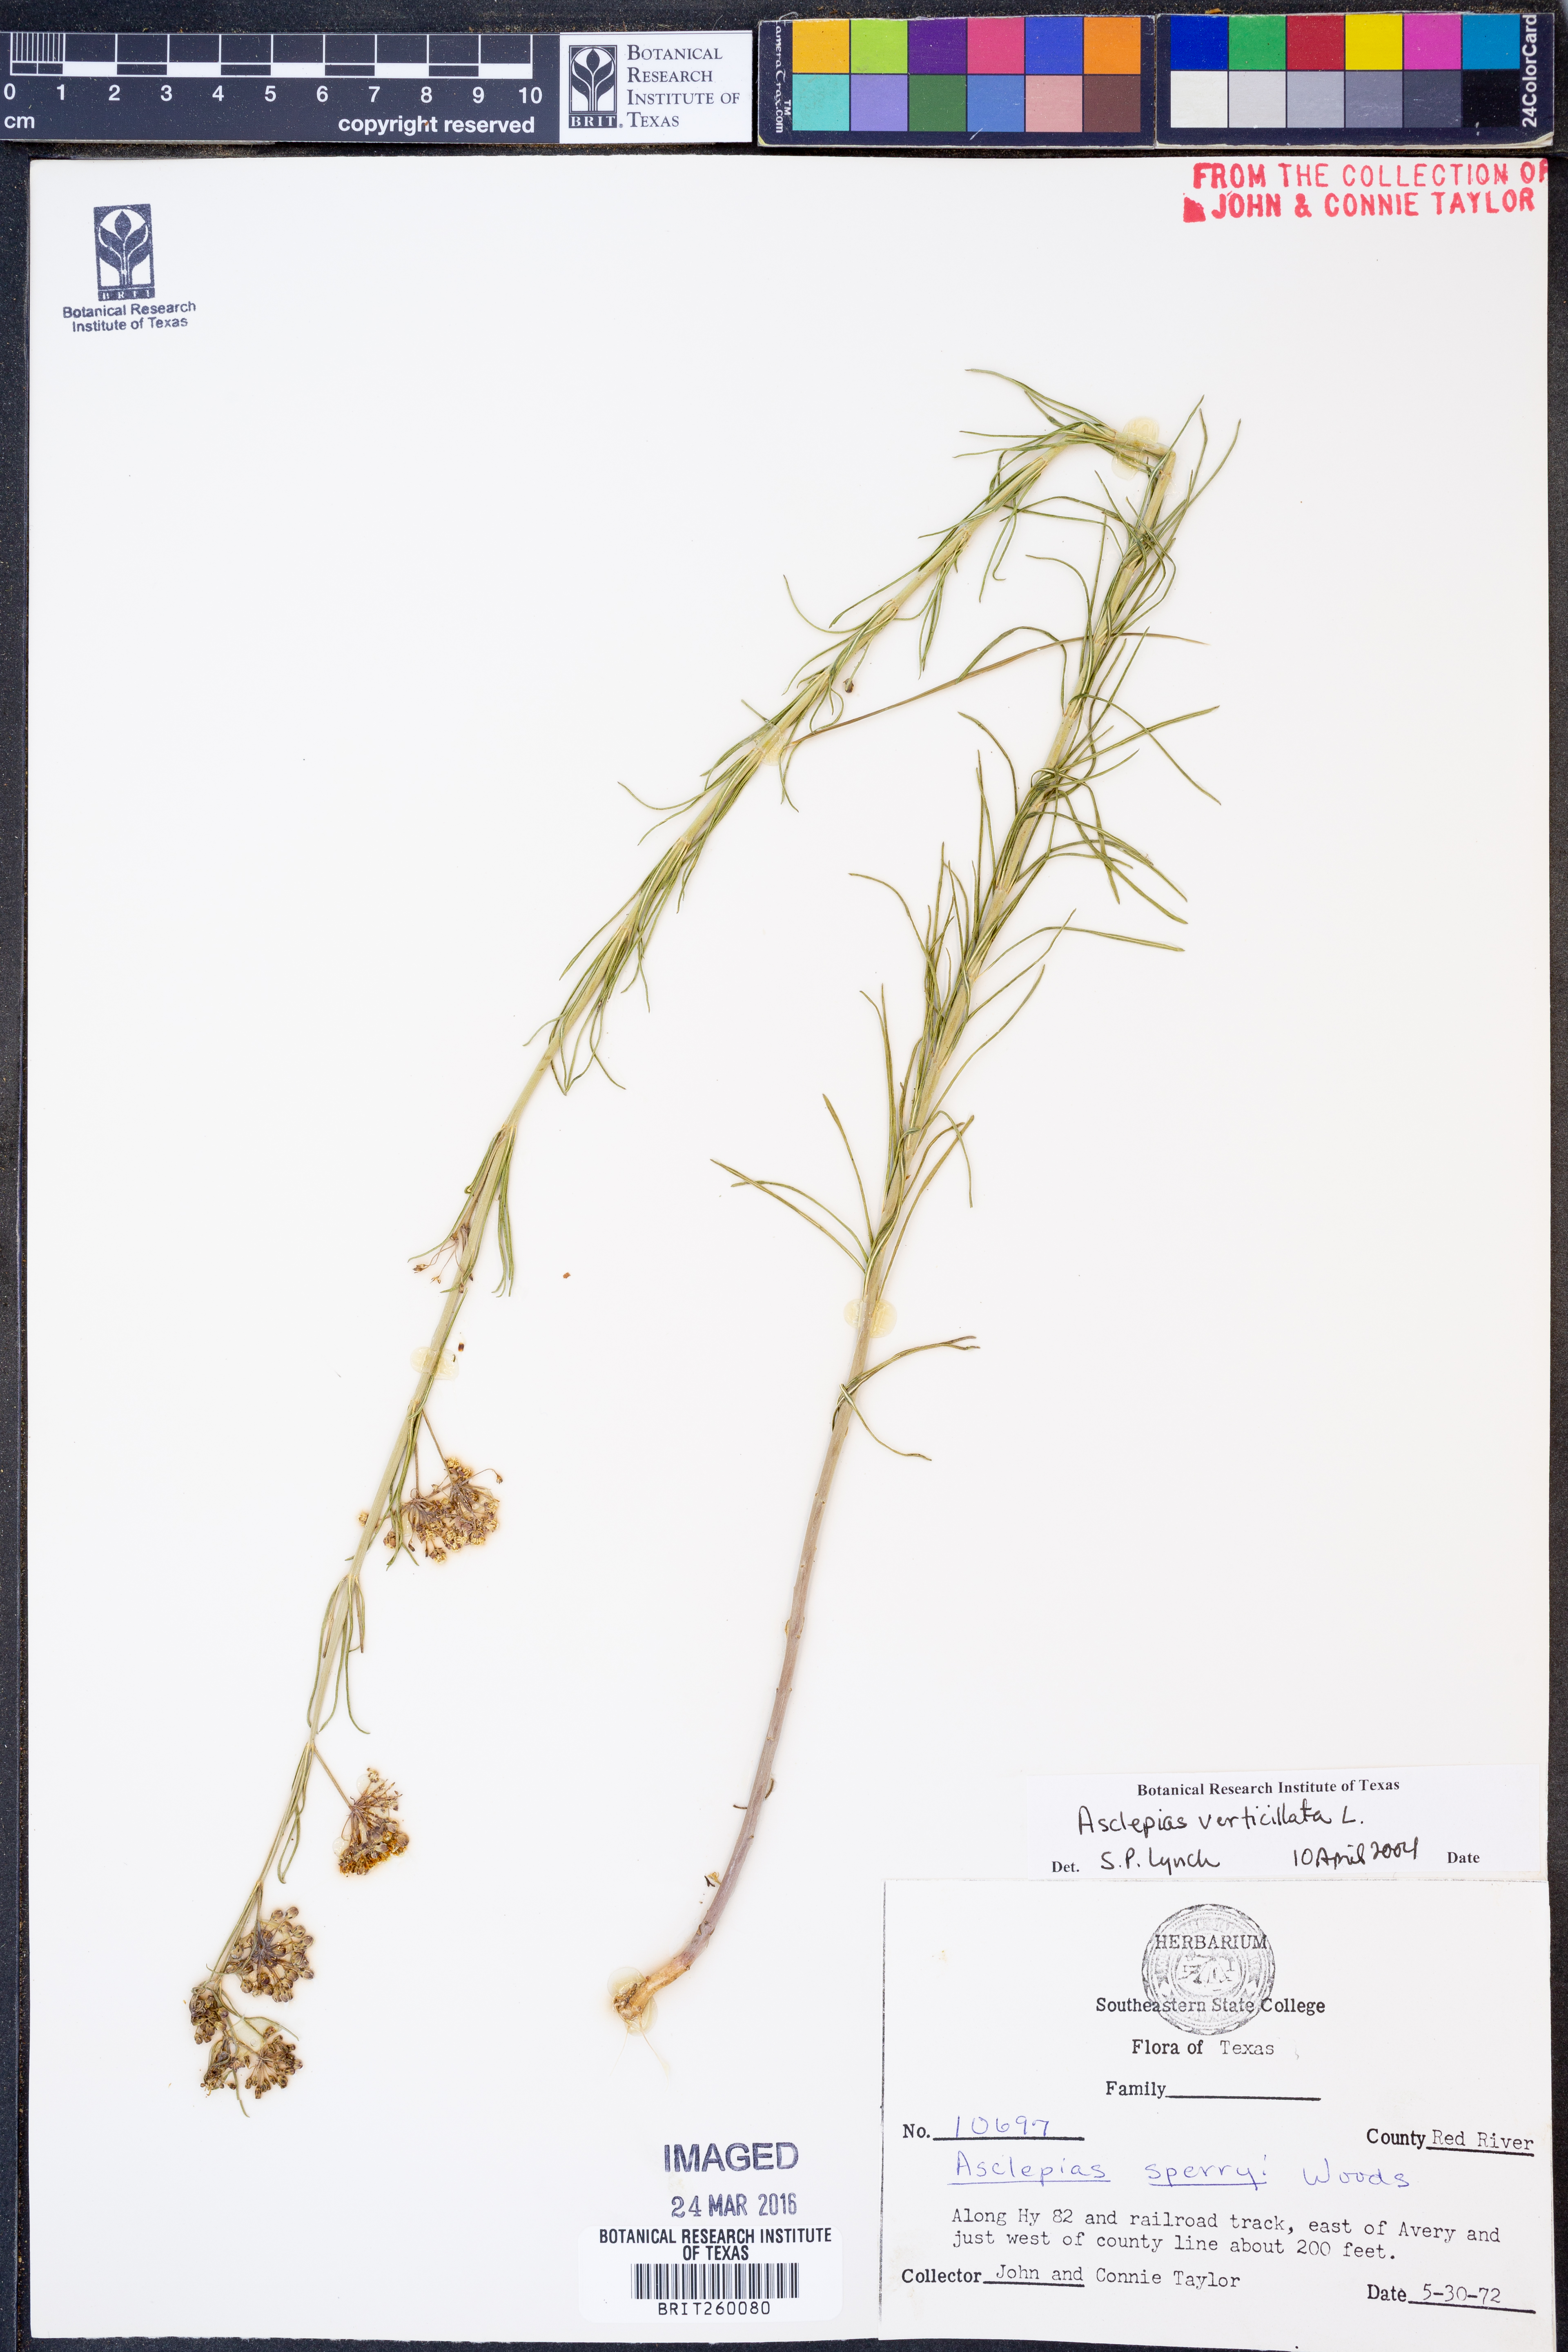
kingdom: Plantae
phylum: Tracheophyta
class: Magnoliopsida
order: Gentianales
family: Apocynaceae
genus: Asclepias
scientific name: Asclepias verticillata
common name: Eastern whorled milkweed
